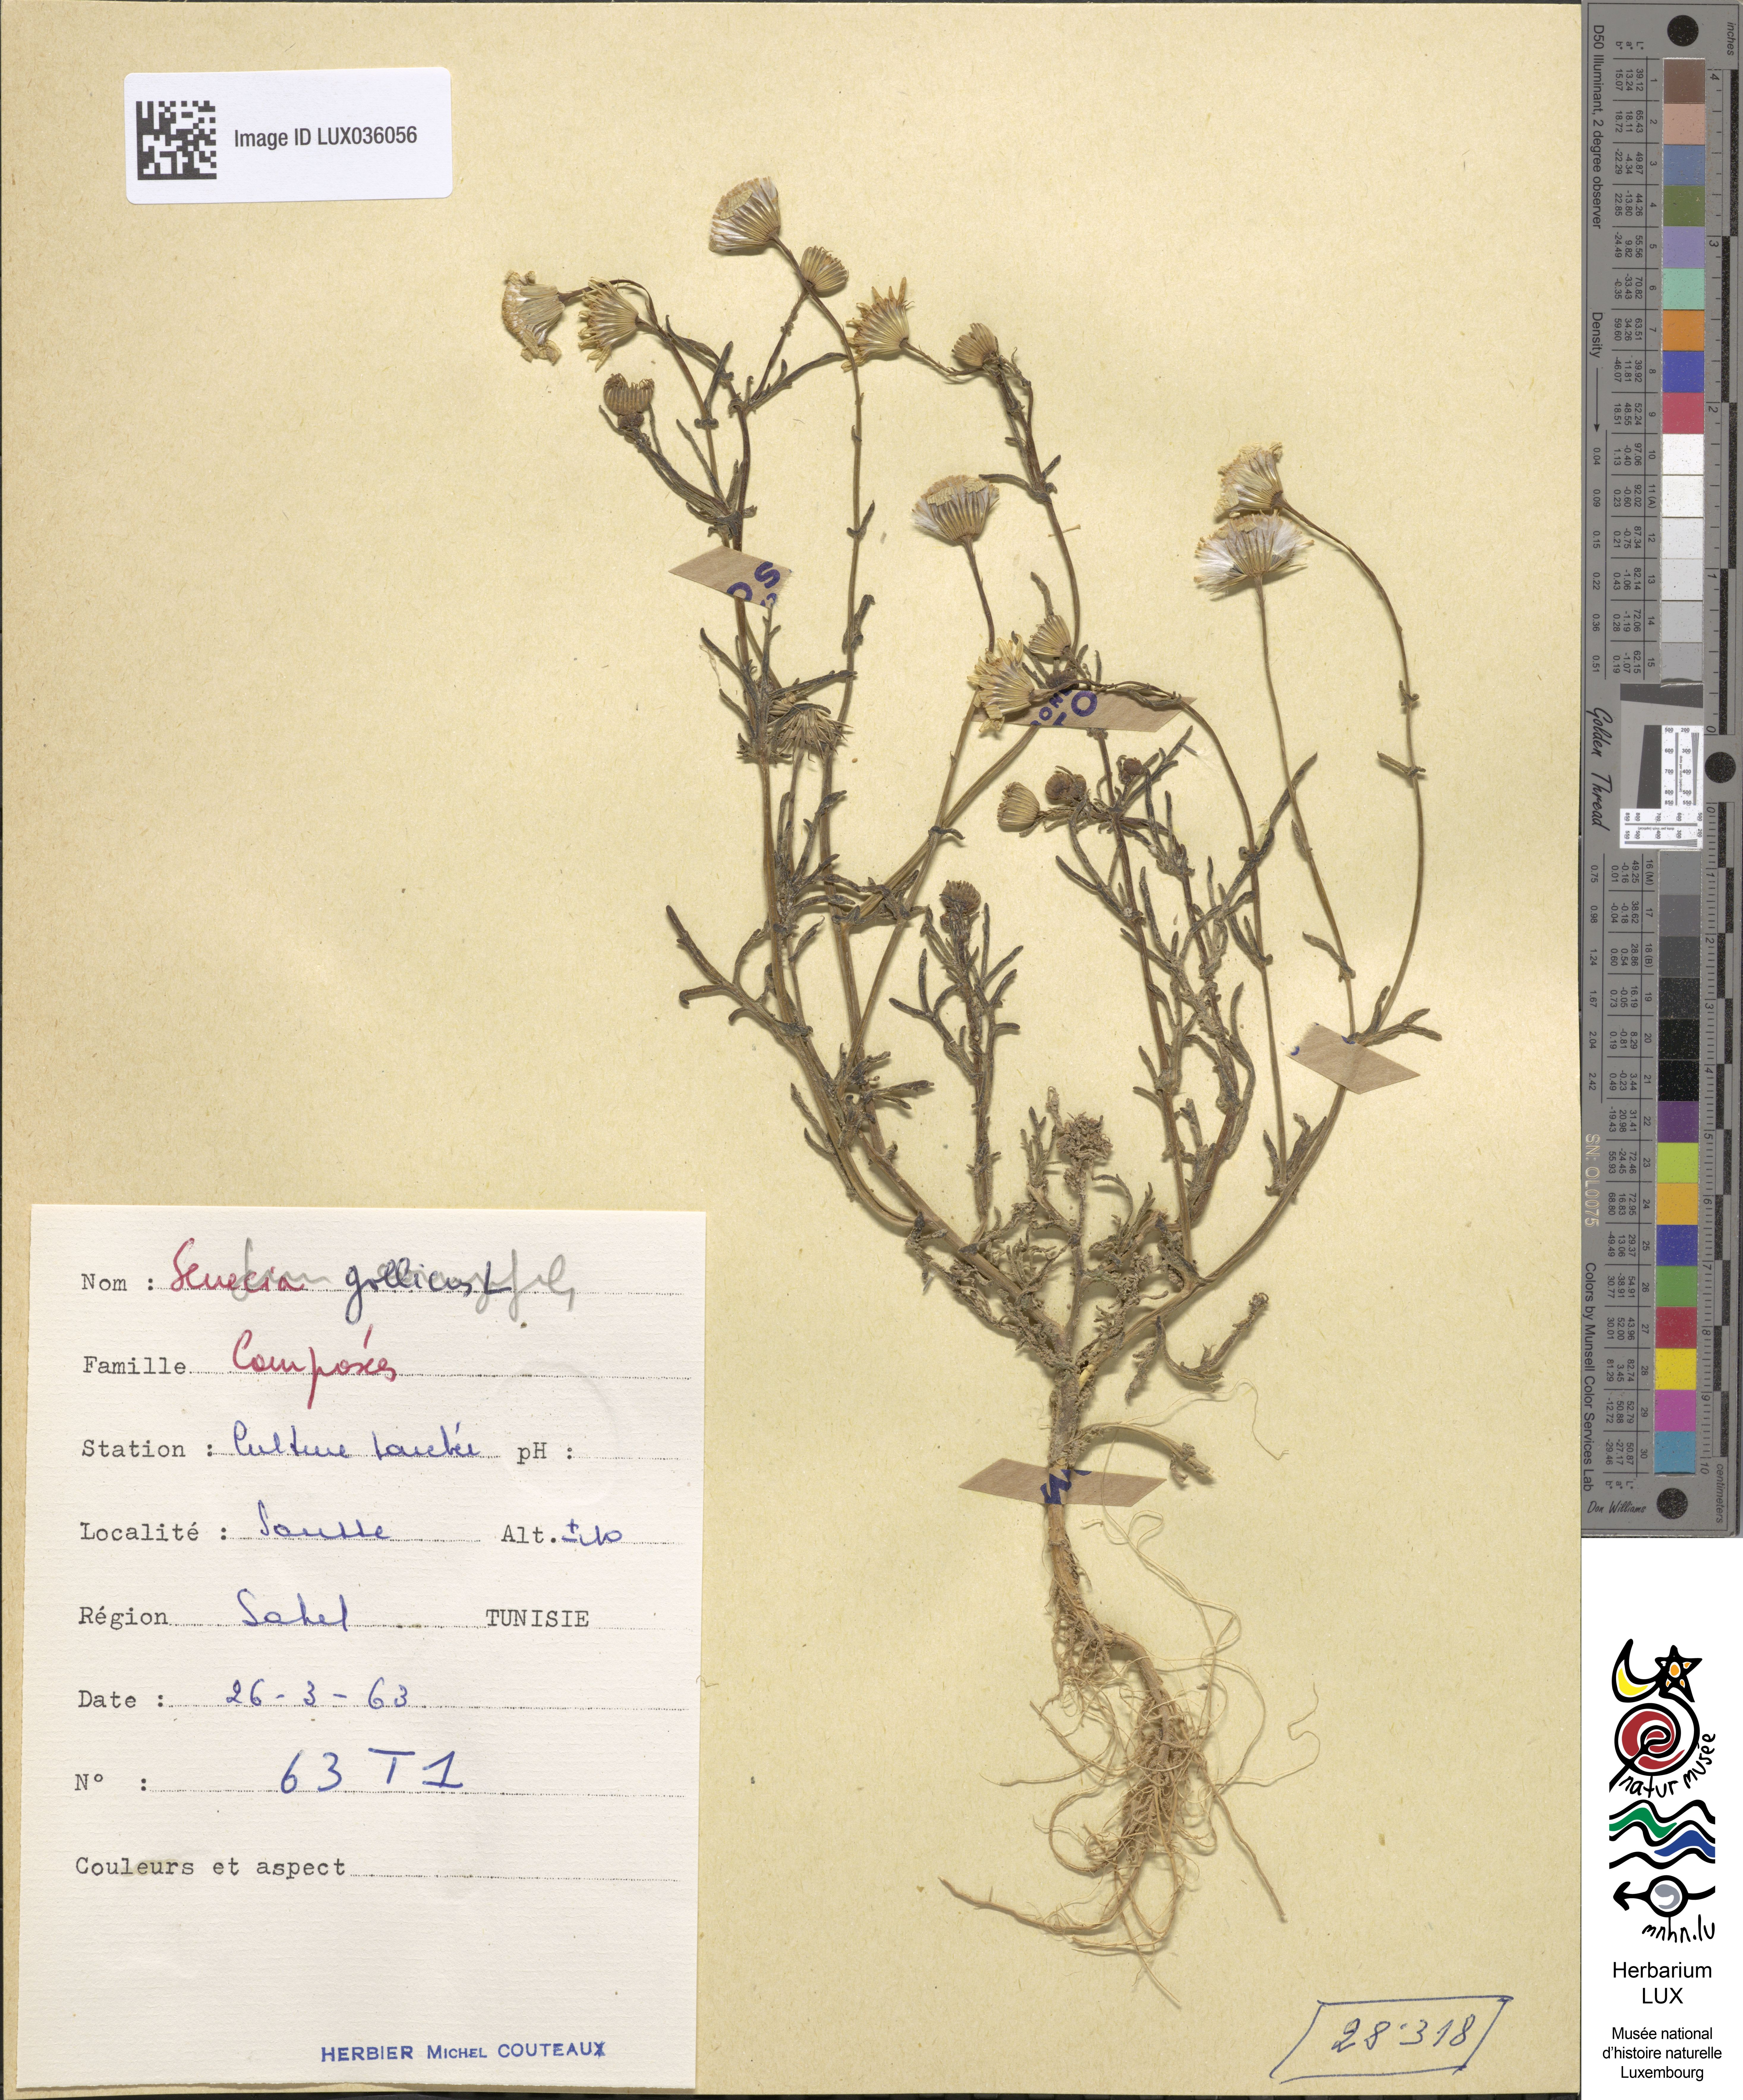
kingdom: Plantae
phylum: Tracheophyta
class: Magnoliopsida
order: Asterales
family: Asteraceae
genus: Senecio
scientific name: Senecio gallicus
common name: French groundsel
